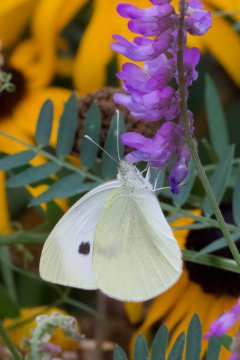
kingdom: Animalia
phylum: Arthropoda
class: Insecta
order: Lepidoptera
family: Pieridae
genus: Pieris
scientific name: Pieris rapae
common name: Cabbage White
